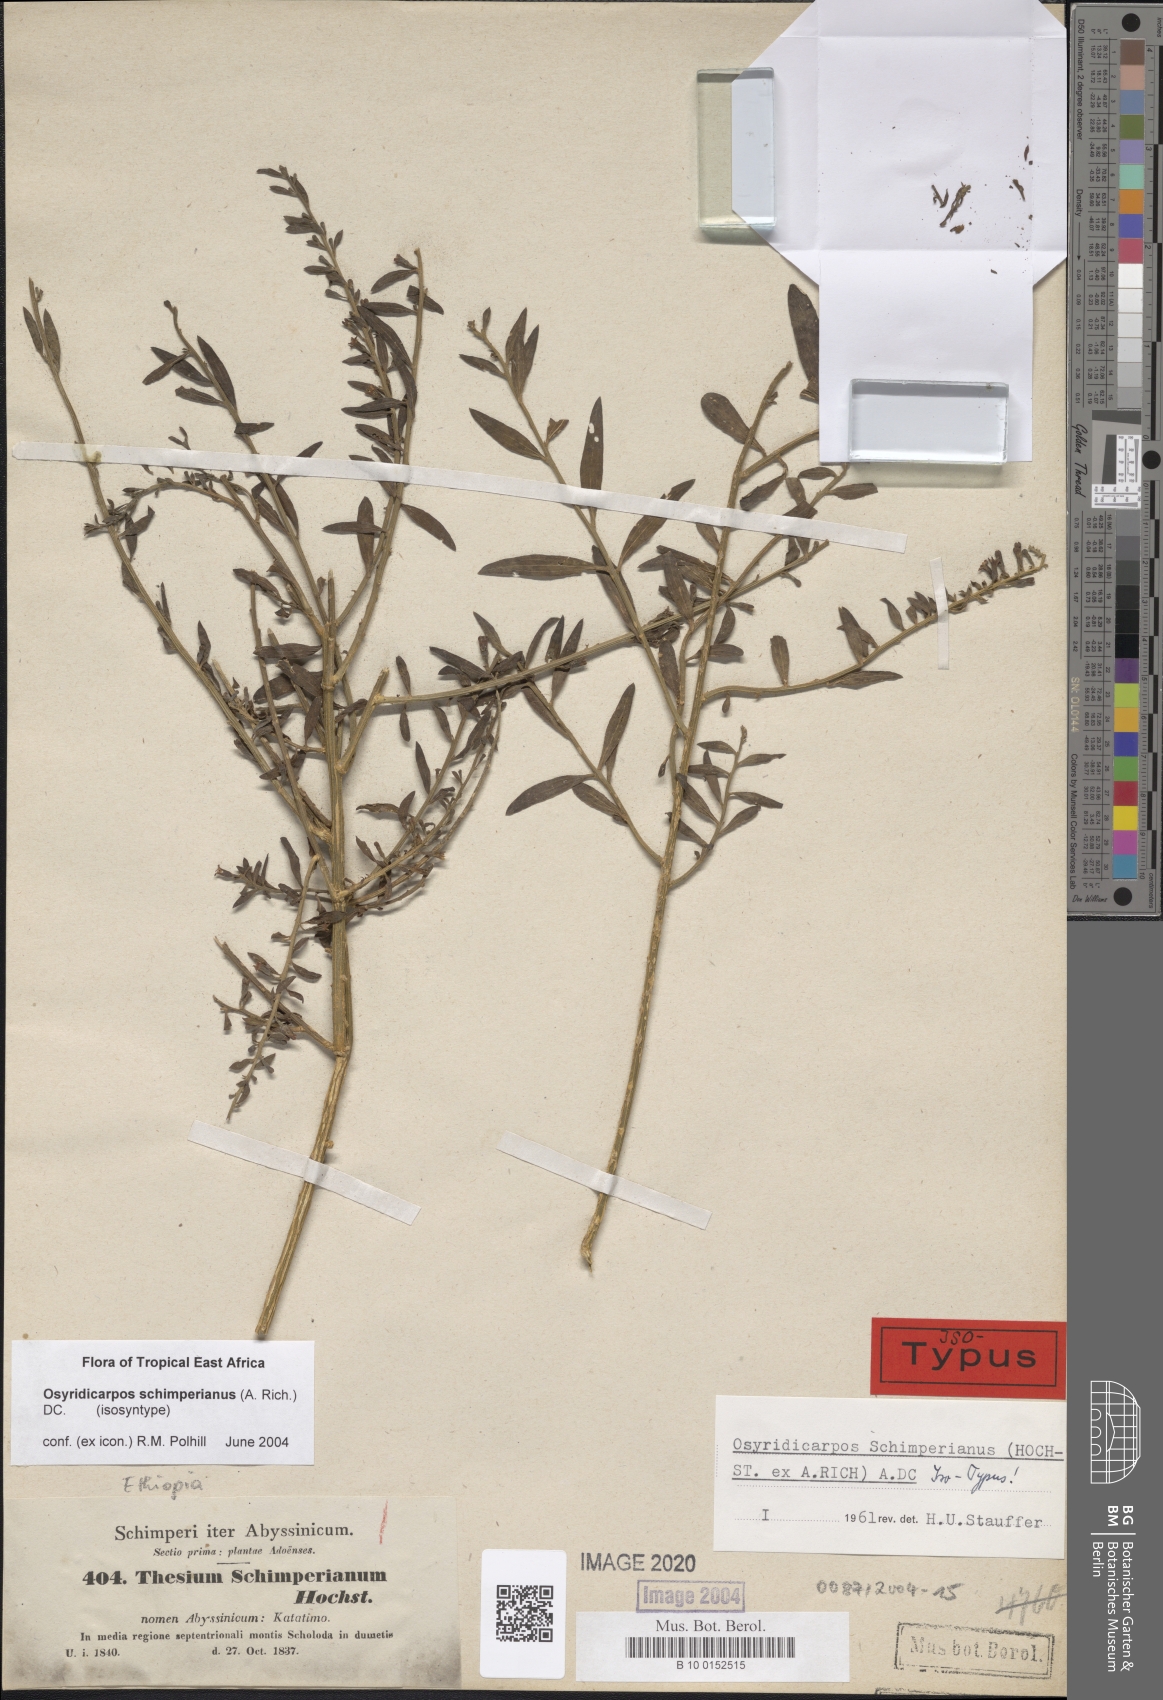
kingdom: Plantae
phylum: Tracheophyta
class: Magnoliopsida
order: Santalales
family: Thesiaceae
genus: Osyridicarpos
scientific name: Osyridicarpos schimperianus
